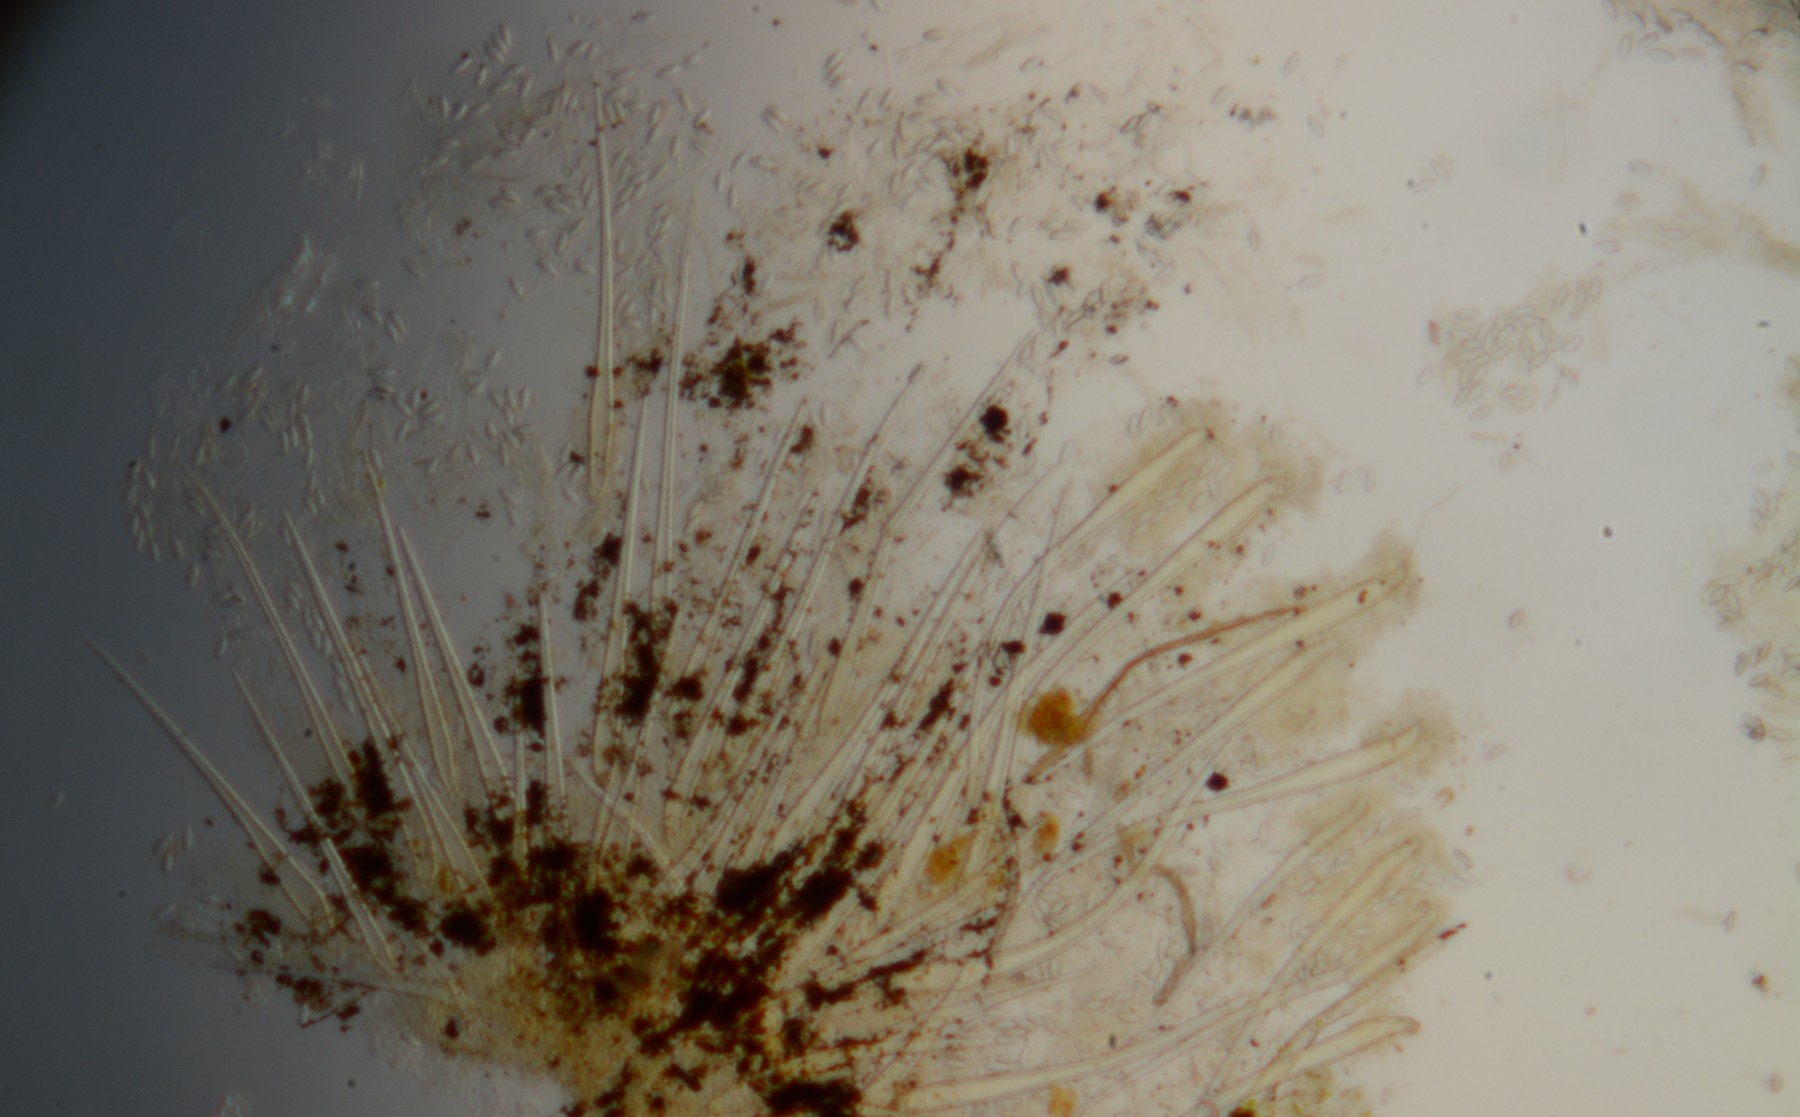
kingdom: Fungi
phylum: Ascomycota
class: Pezizomycetes
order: Pezizales
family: Ascodesmidaceae
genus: Lasiobolus
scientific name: Lasiobolus ruber
